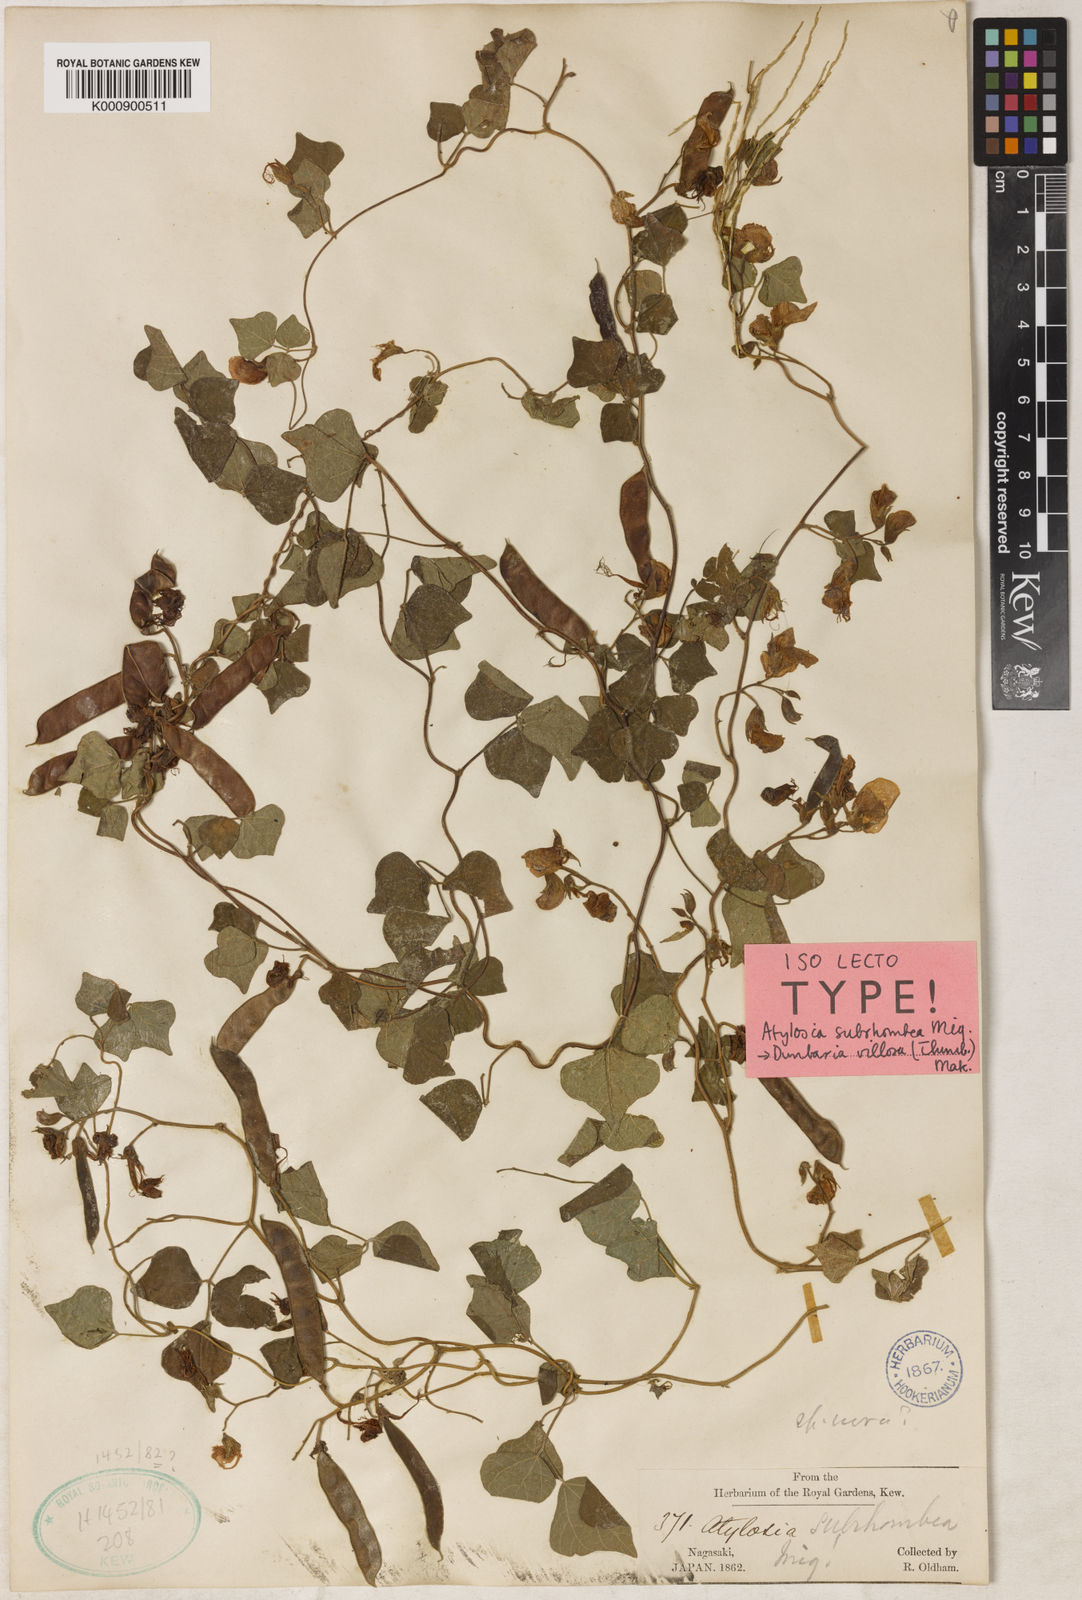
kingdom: Plantae
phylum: Tracheophyta
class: Magnoliopsida
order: Fabales
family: Fabaceae
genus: Dunbaria
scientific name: Dunbaria villosa
